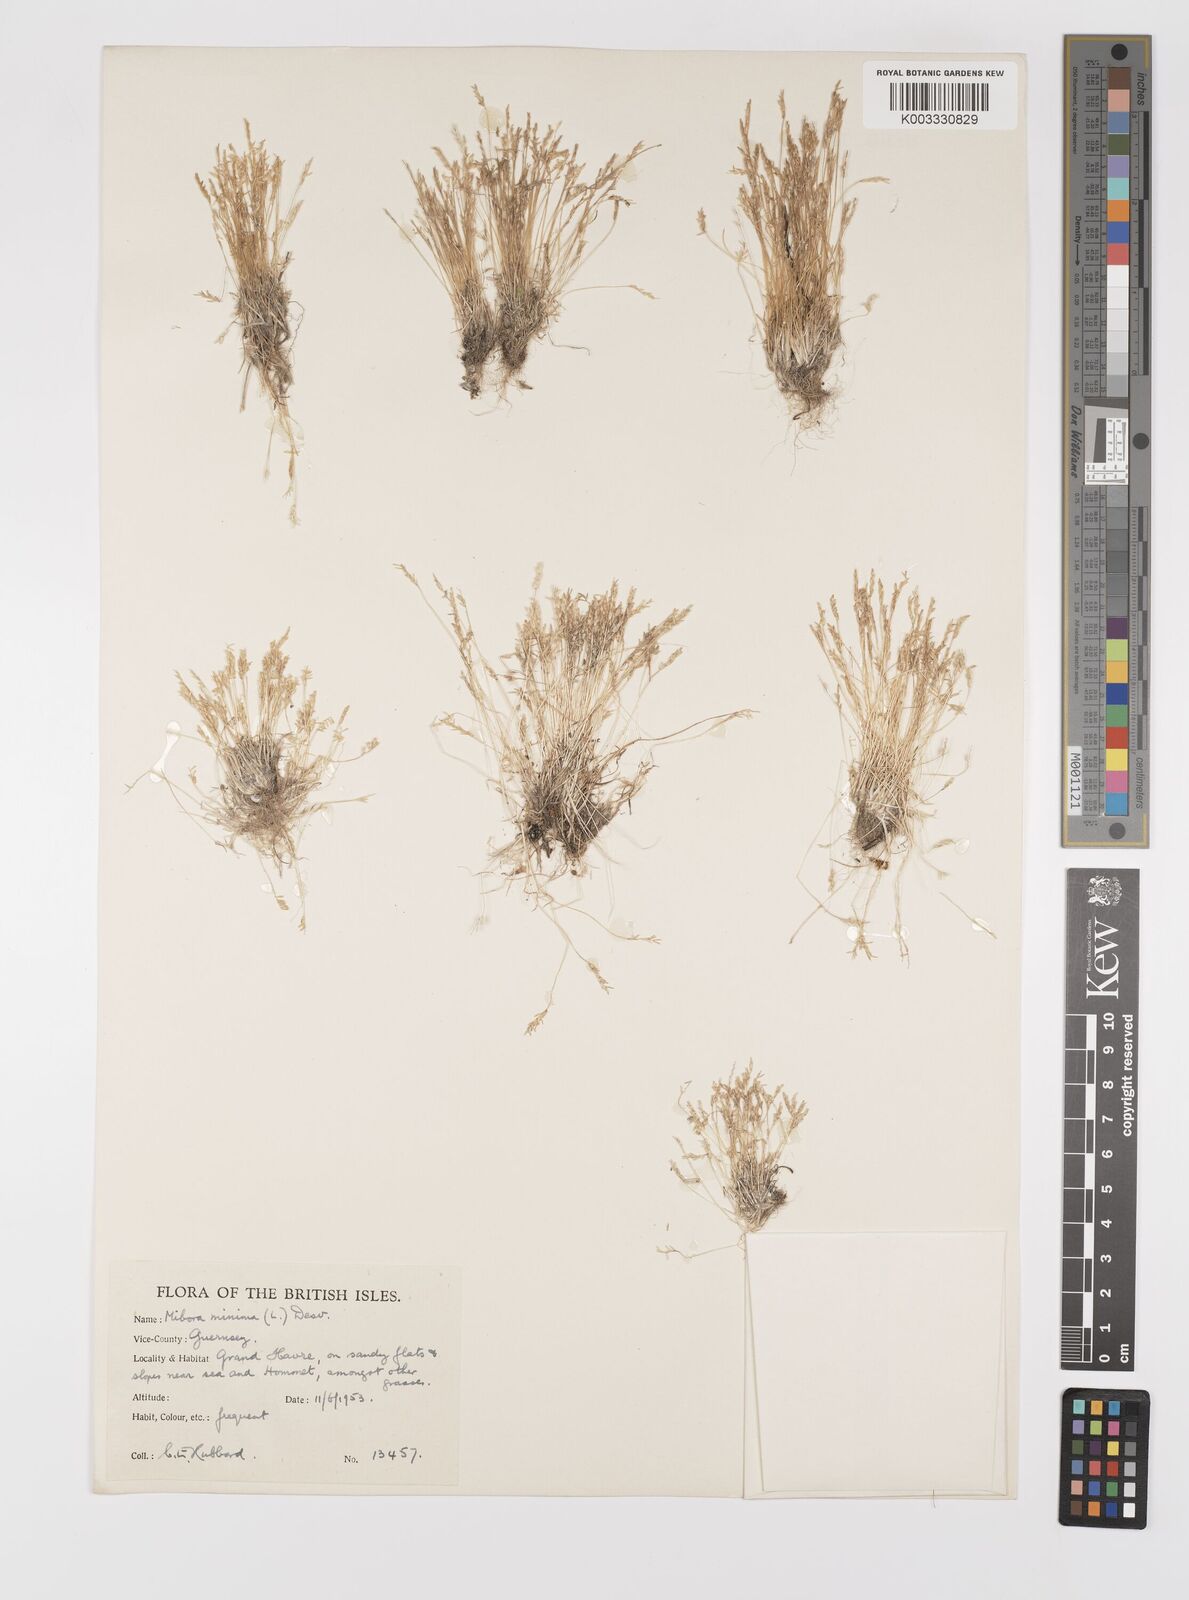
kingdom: Plantae
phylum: Tracheophyta
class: Liliopsida
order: Poales
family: Poaceae
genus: Mibora
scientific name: Mibora minima
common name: Early sand-grass
